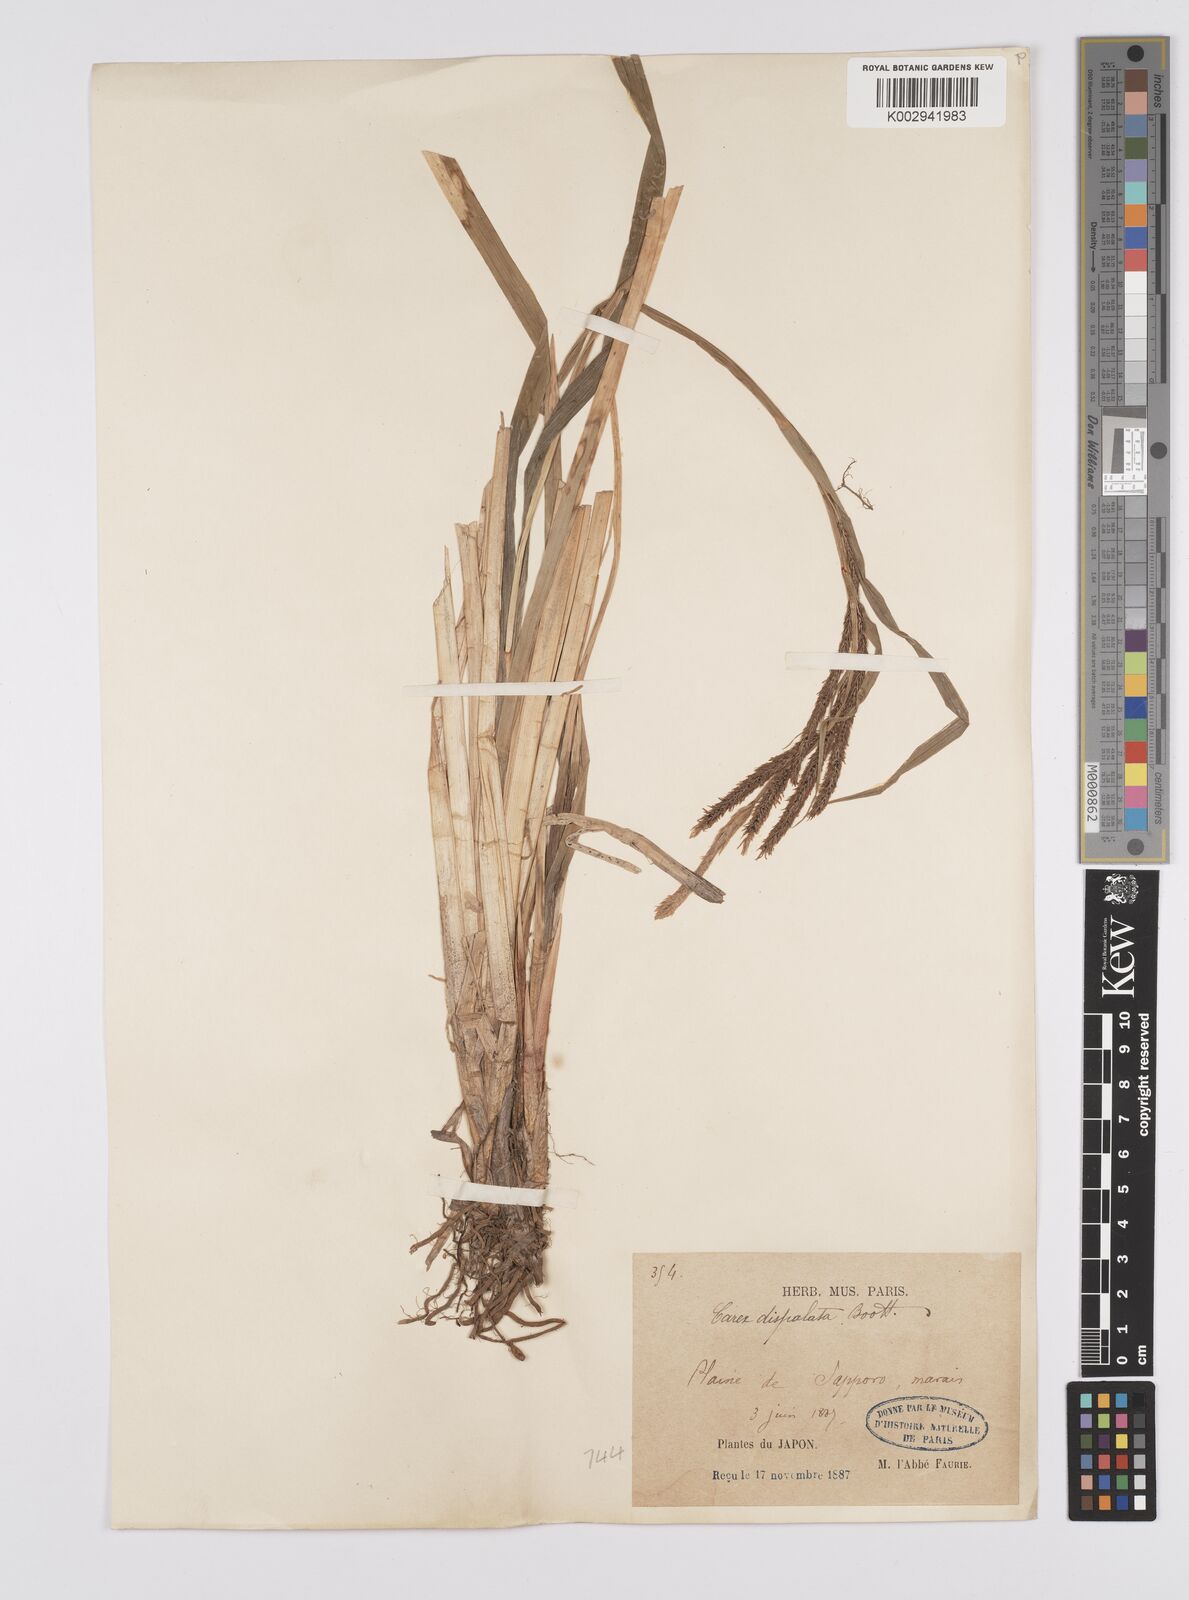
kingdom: Plantae
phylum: Tracheophyta
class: Liliopsida
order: Poales
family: Cyperaceae
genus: Carex
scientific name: Carex dispalata
